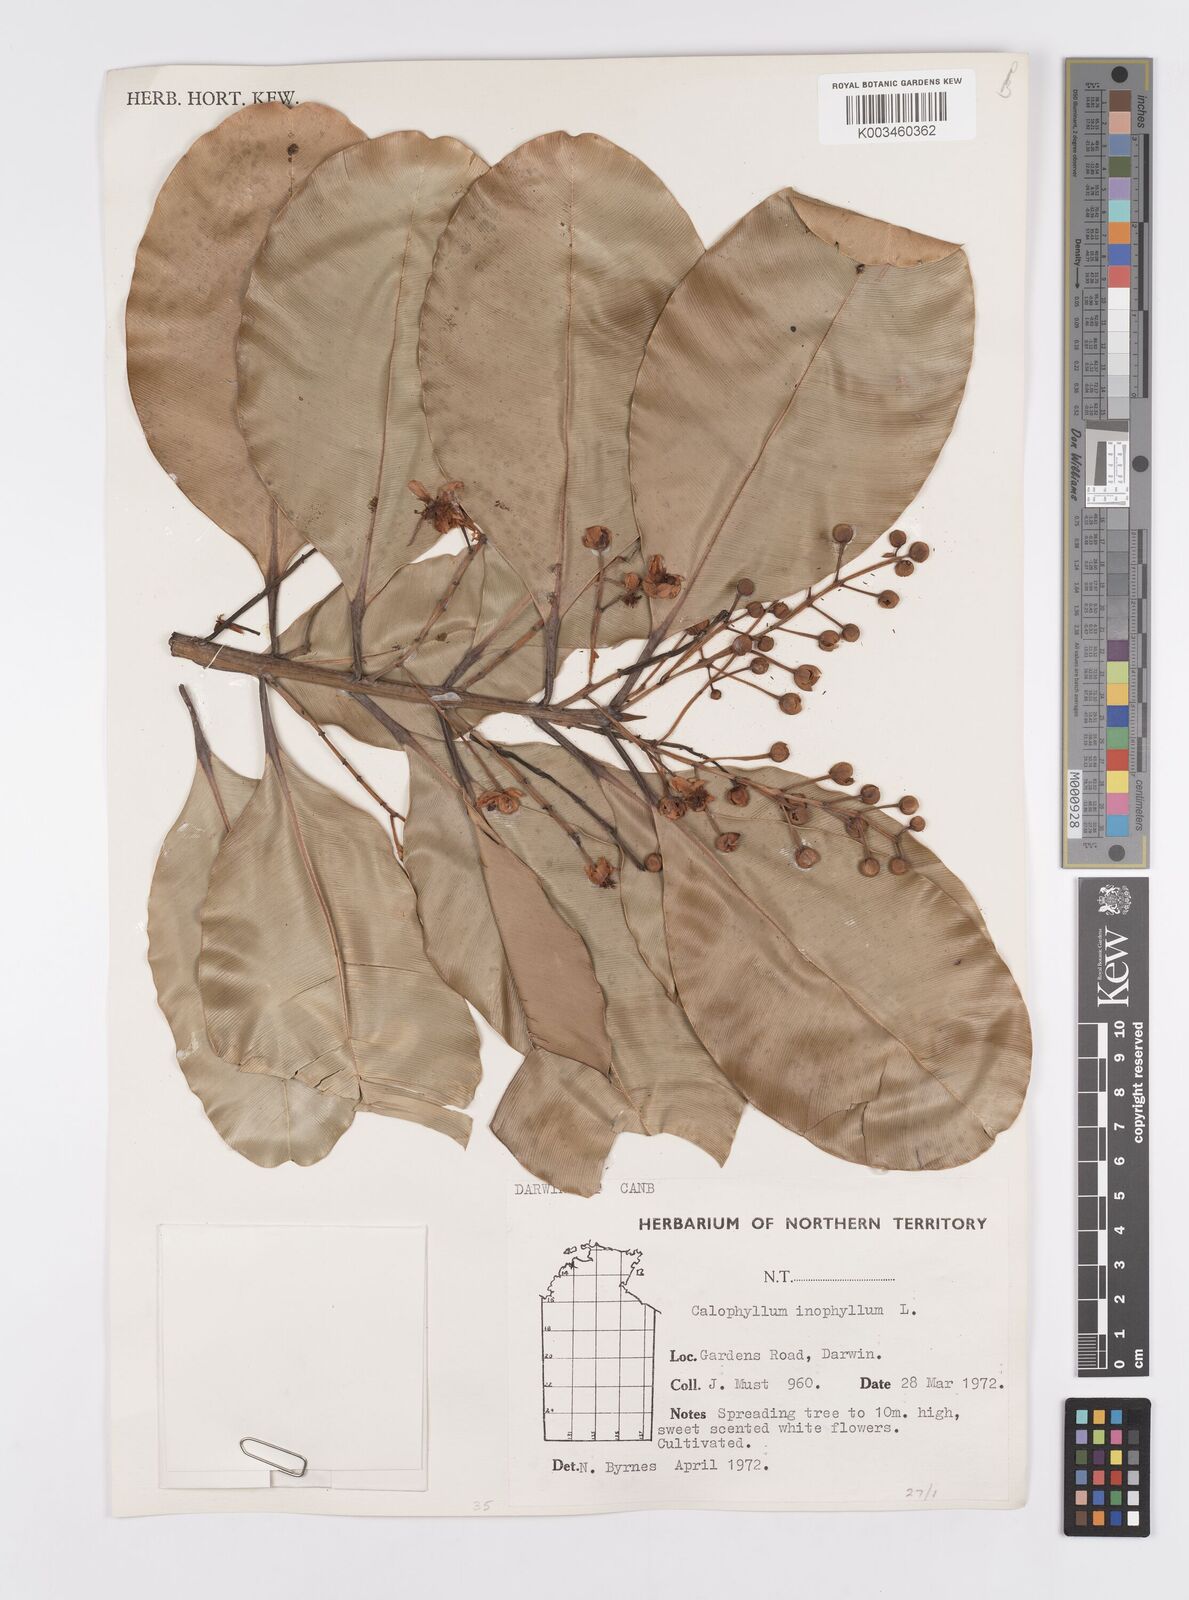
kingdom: Plantae
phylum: Tracheophyta
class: Magnoliopsida
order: Malpighiales
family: Calophyllaceae
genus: Calophyllum
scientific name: Calophyllum inophyllum
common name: Alexandrian laurel
